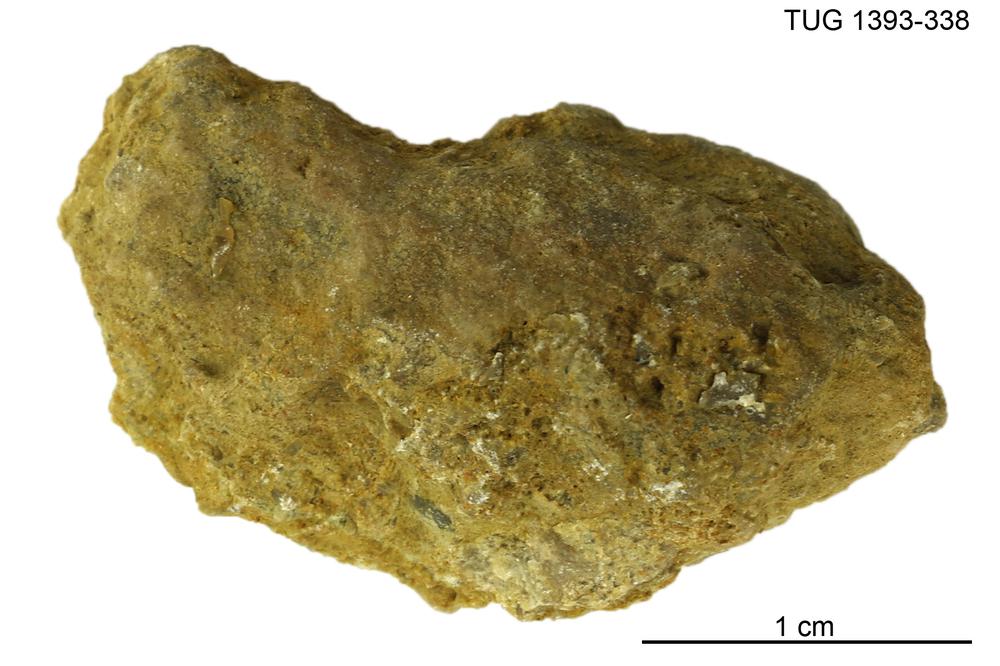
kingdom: Animalia
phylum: Bryozoa
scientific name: Bryozoa
